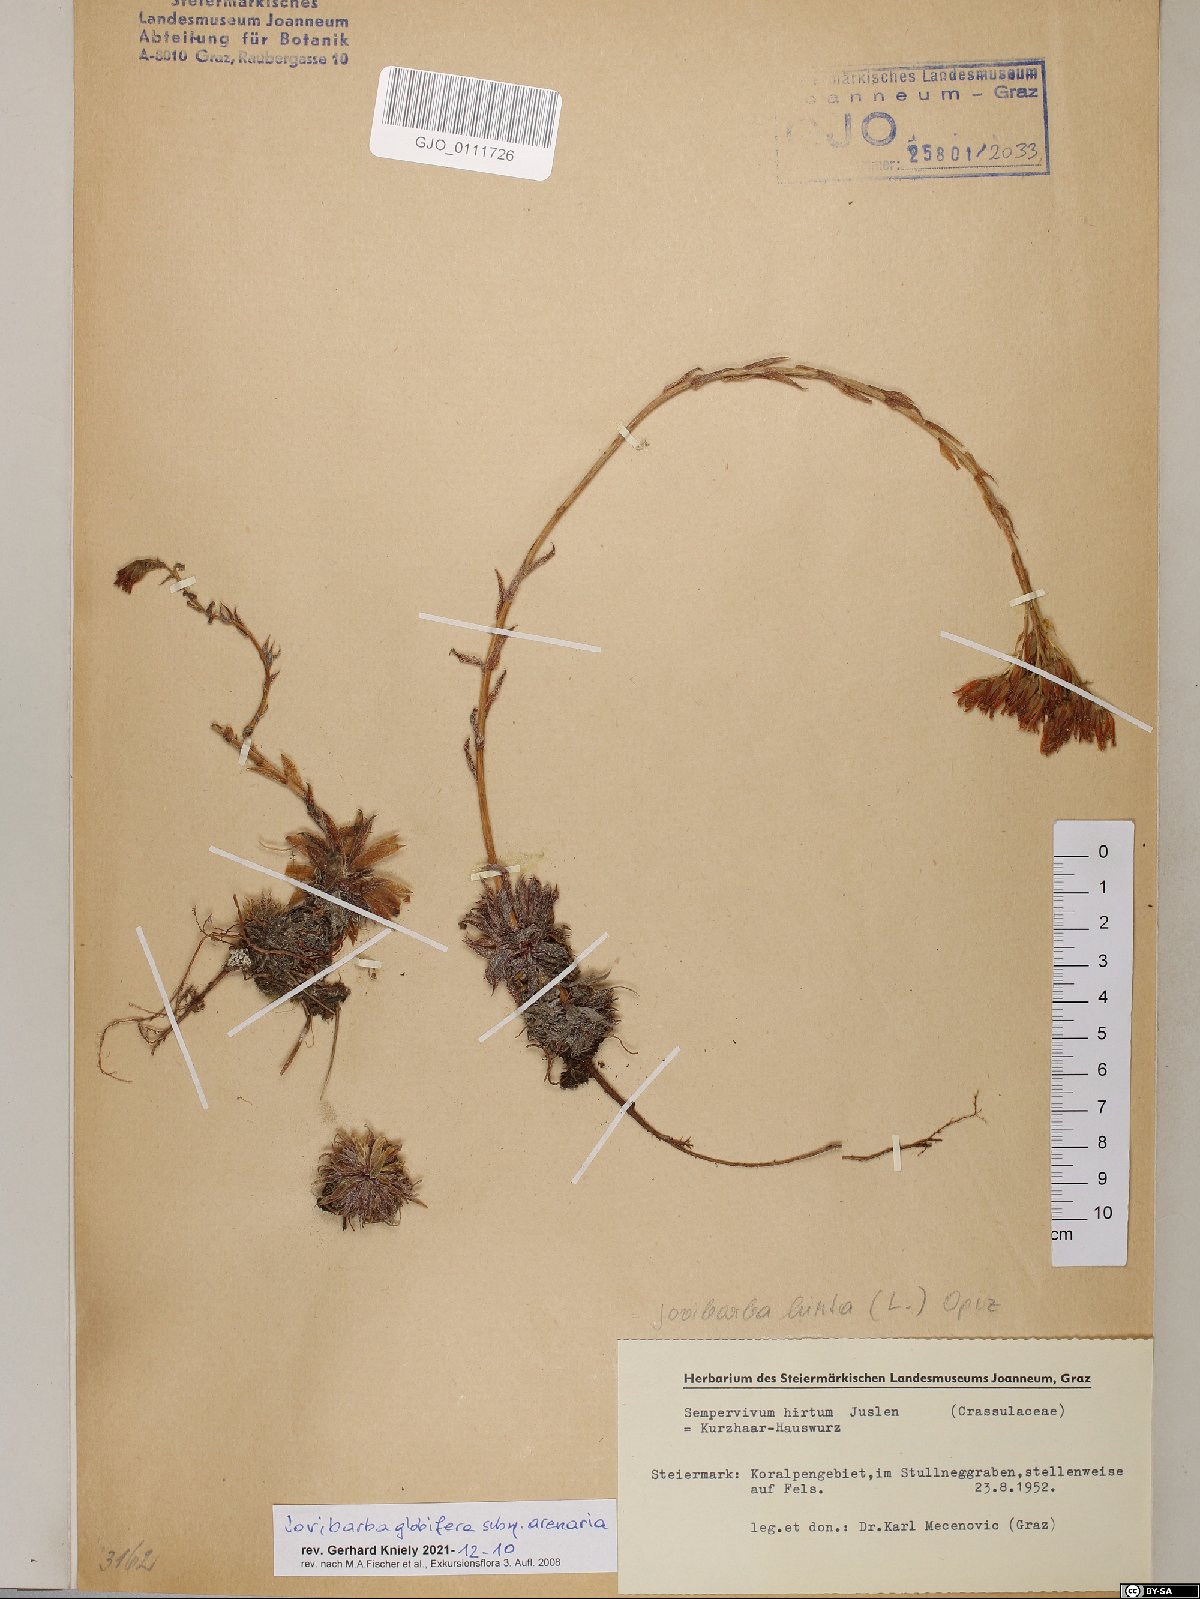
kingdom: Plantae
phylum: Tracheophyta
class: Magnoliopsida
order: Saxifragales
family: Crassulaceae
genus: Sempervivum
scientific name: Sempervivum globiferum
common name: Rolling hen-and-chicks
